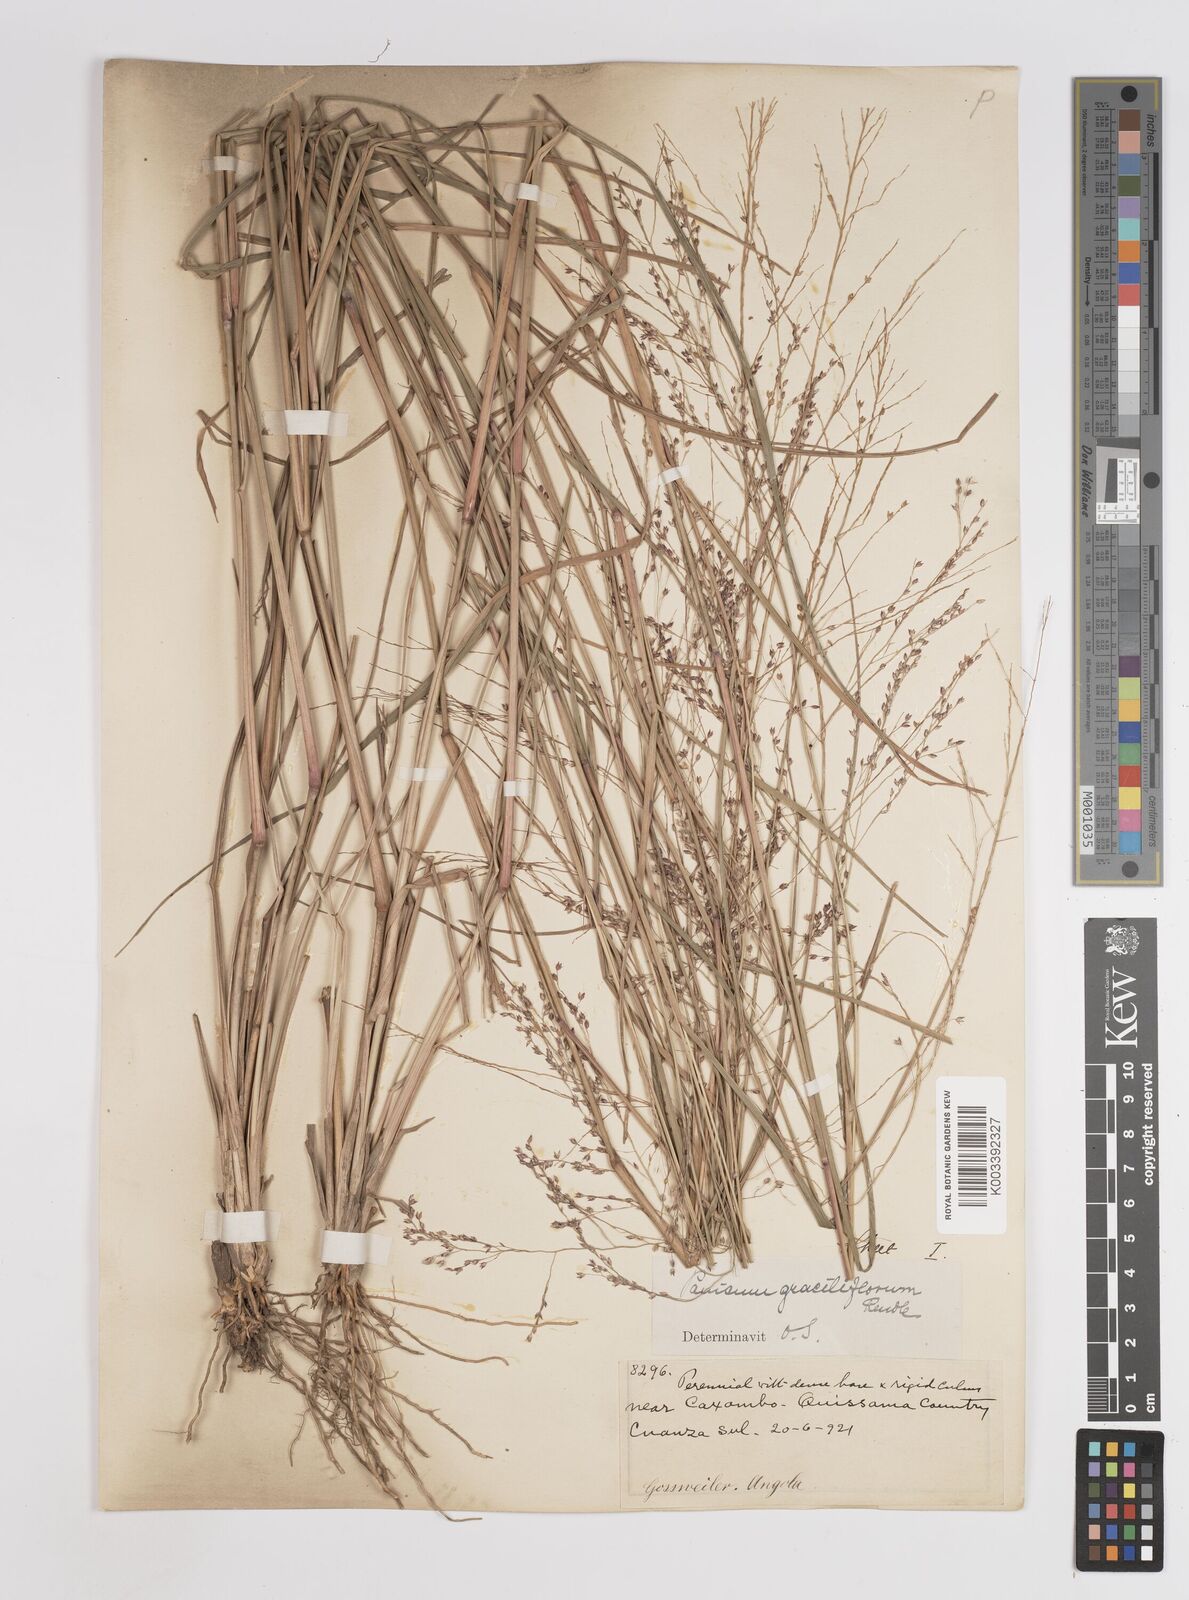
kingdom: Plantae
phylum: Tracheophyta
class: Liliopsida
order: Poales
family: Poaceae
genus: Panicum
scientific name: Panicum fluviicola
